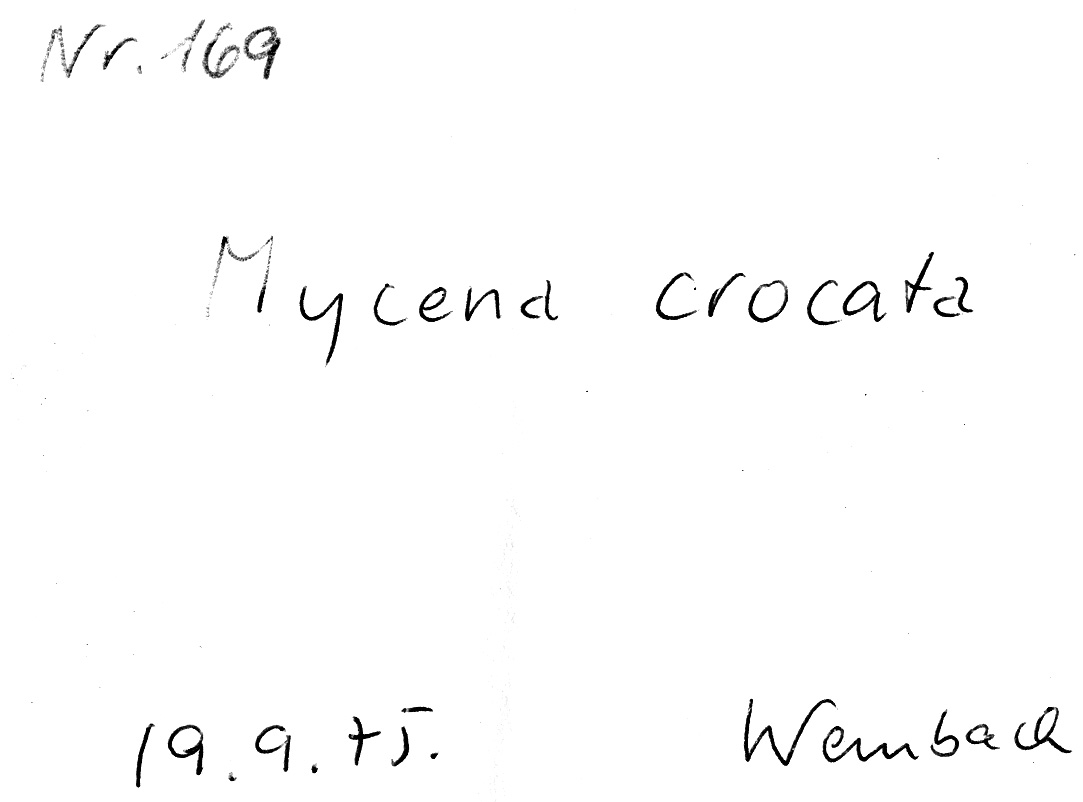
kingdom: Fungi
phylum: Basidiomycota
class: Agaricomycetes
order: Agaricales
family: Mycenaceae
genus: Mycena
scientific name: Mycena crocata
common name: Saffrondrop bonnet
